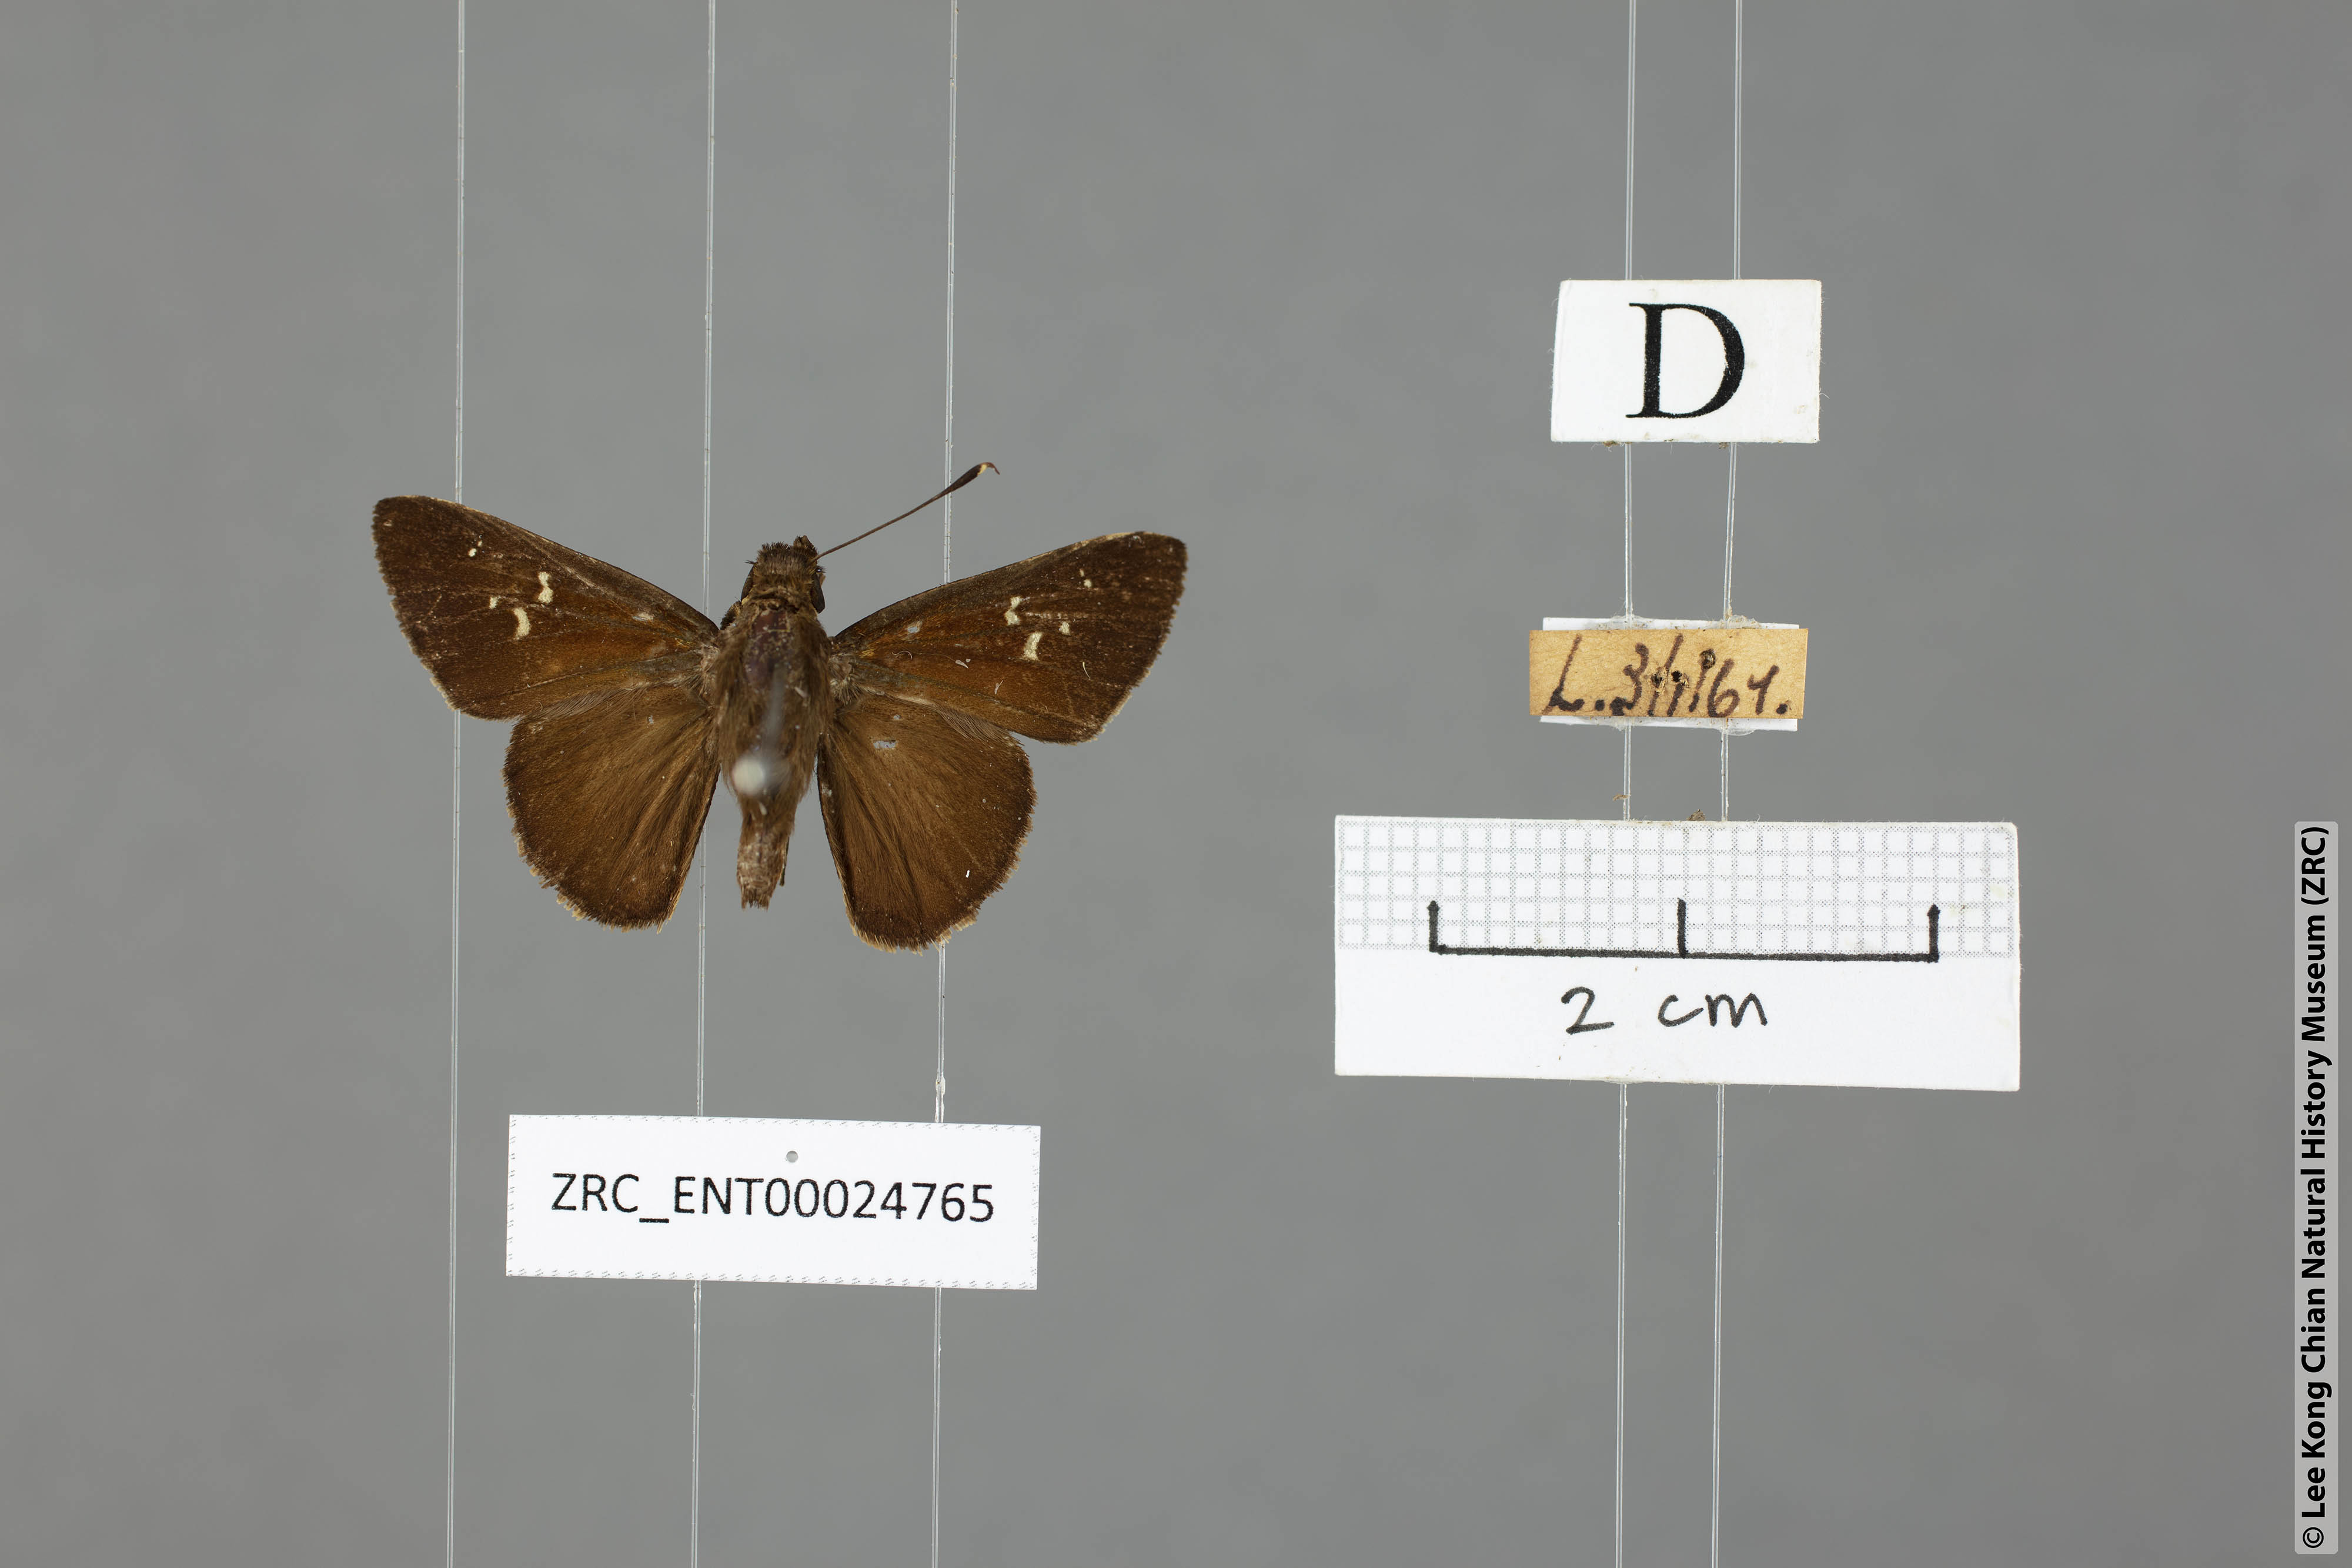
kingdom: Animalia
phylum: Arthropoda
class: Insecta
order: Lepidoptera
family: Hesperiidae
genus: Hyarotis
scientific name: Hyarotis microstictum
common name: Small brush flitter
